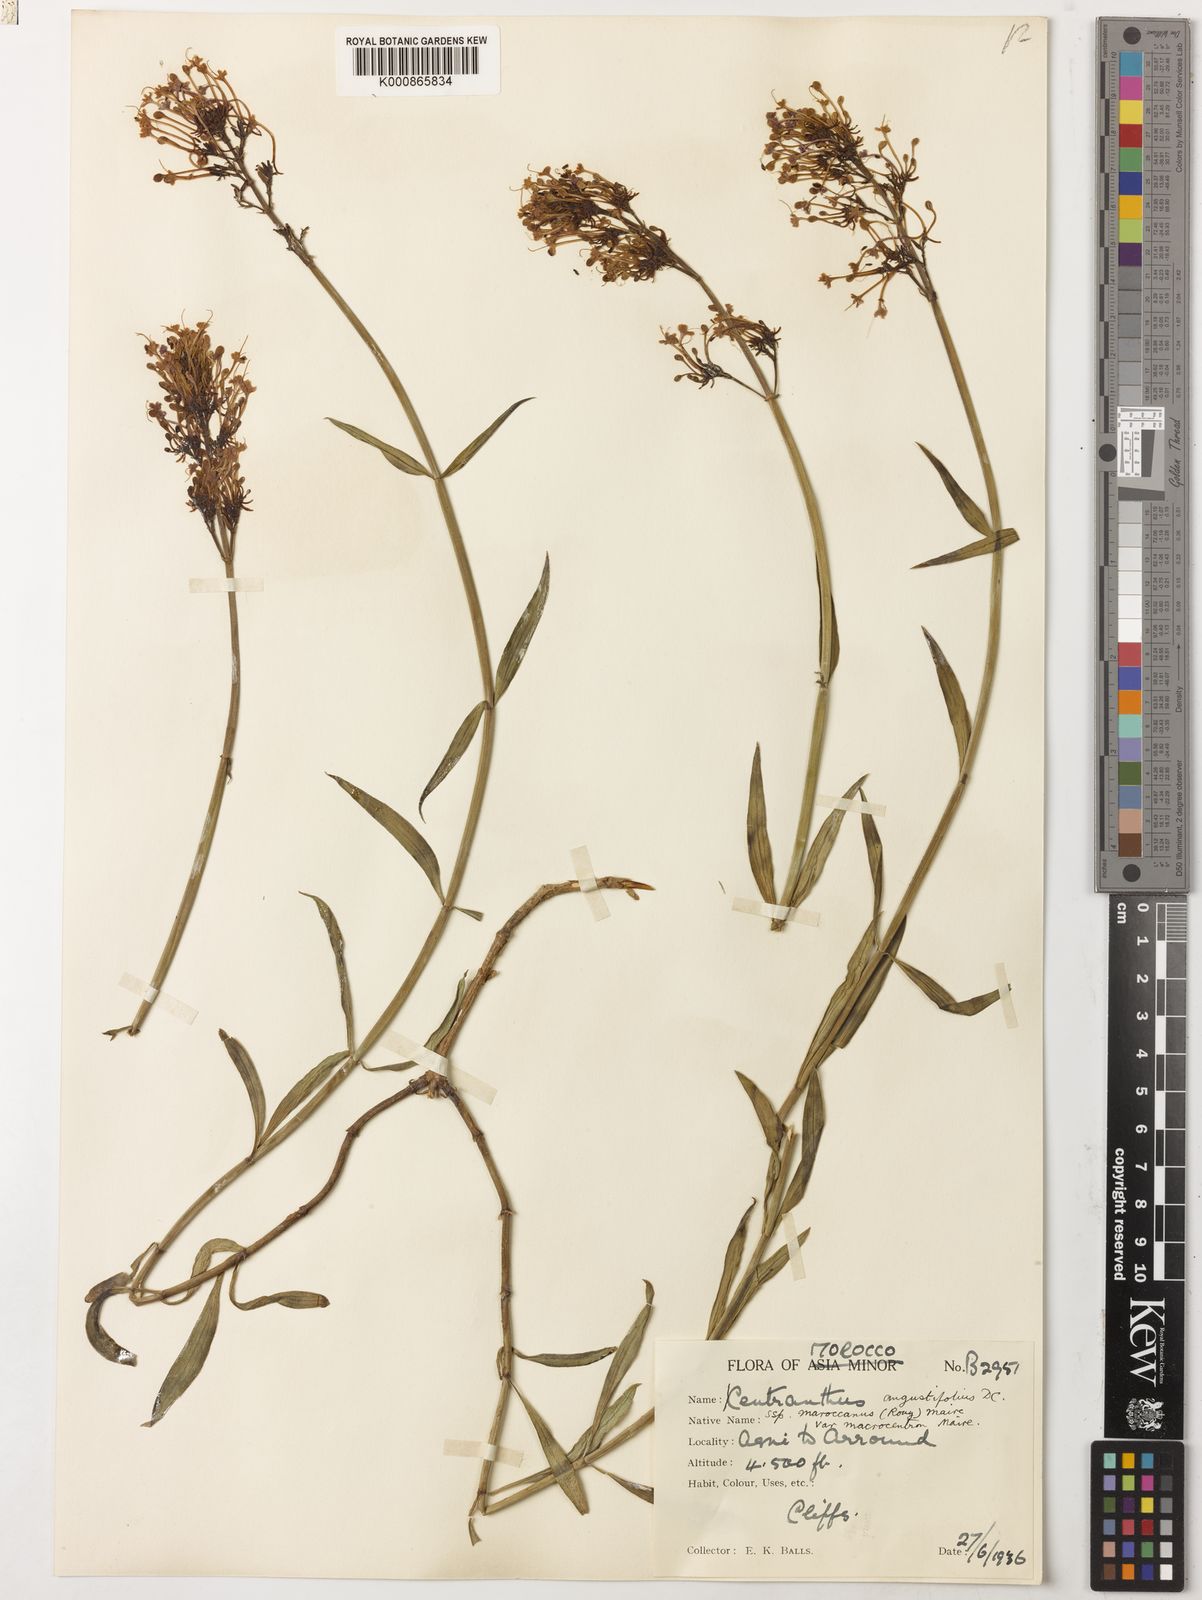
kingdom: Plantae
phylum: Tracheophyta
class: Magnoliopsida
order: Dipsacales
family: Caprifoliaceae
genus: Centranthus
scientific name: Centranthus angustifolius
